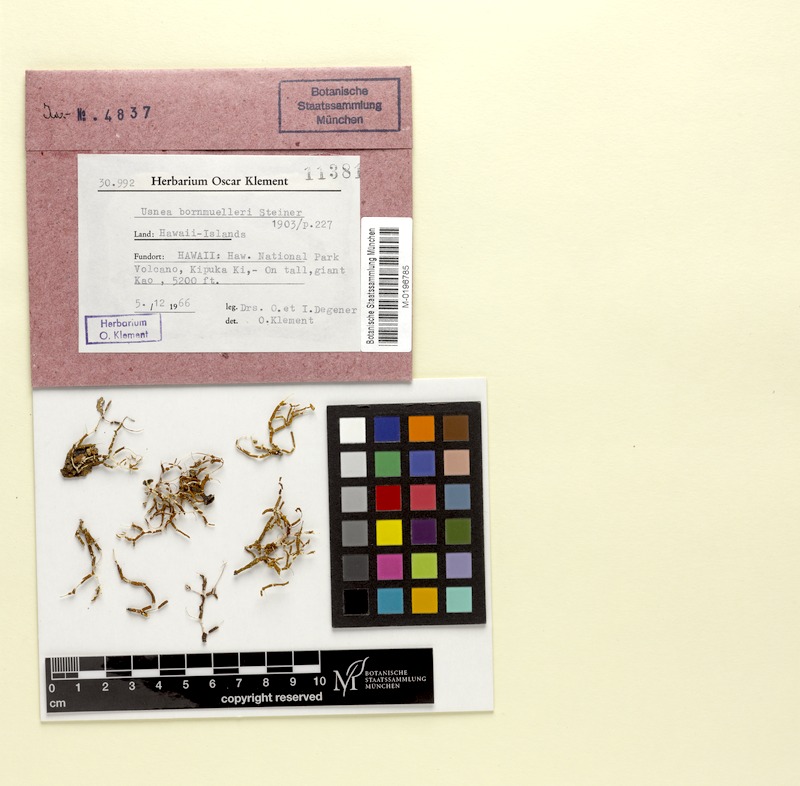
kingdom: Fungi
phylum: Ascomycota
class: Lecanoromycetes
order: Lecanorales
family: Parmeliaceae
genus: Usnea
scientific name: Usnea bornmuelleri
